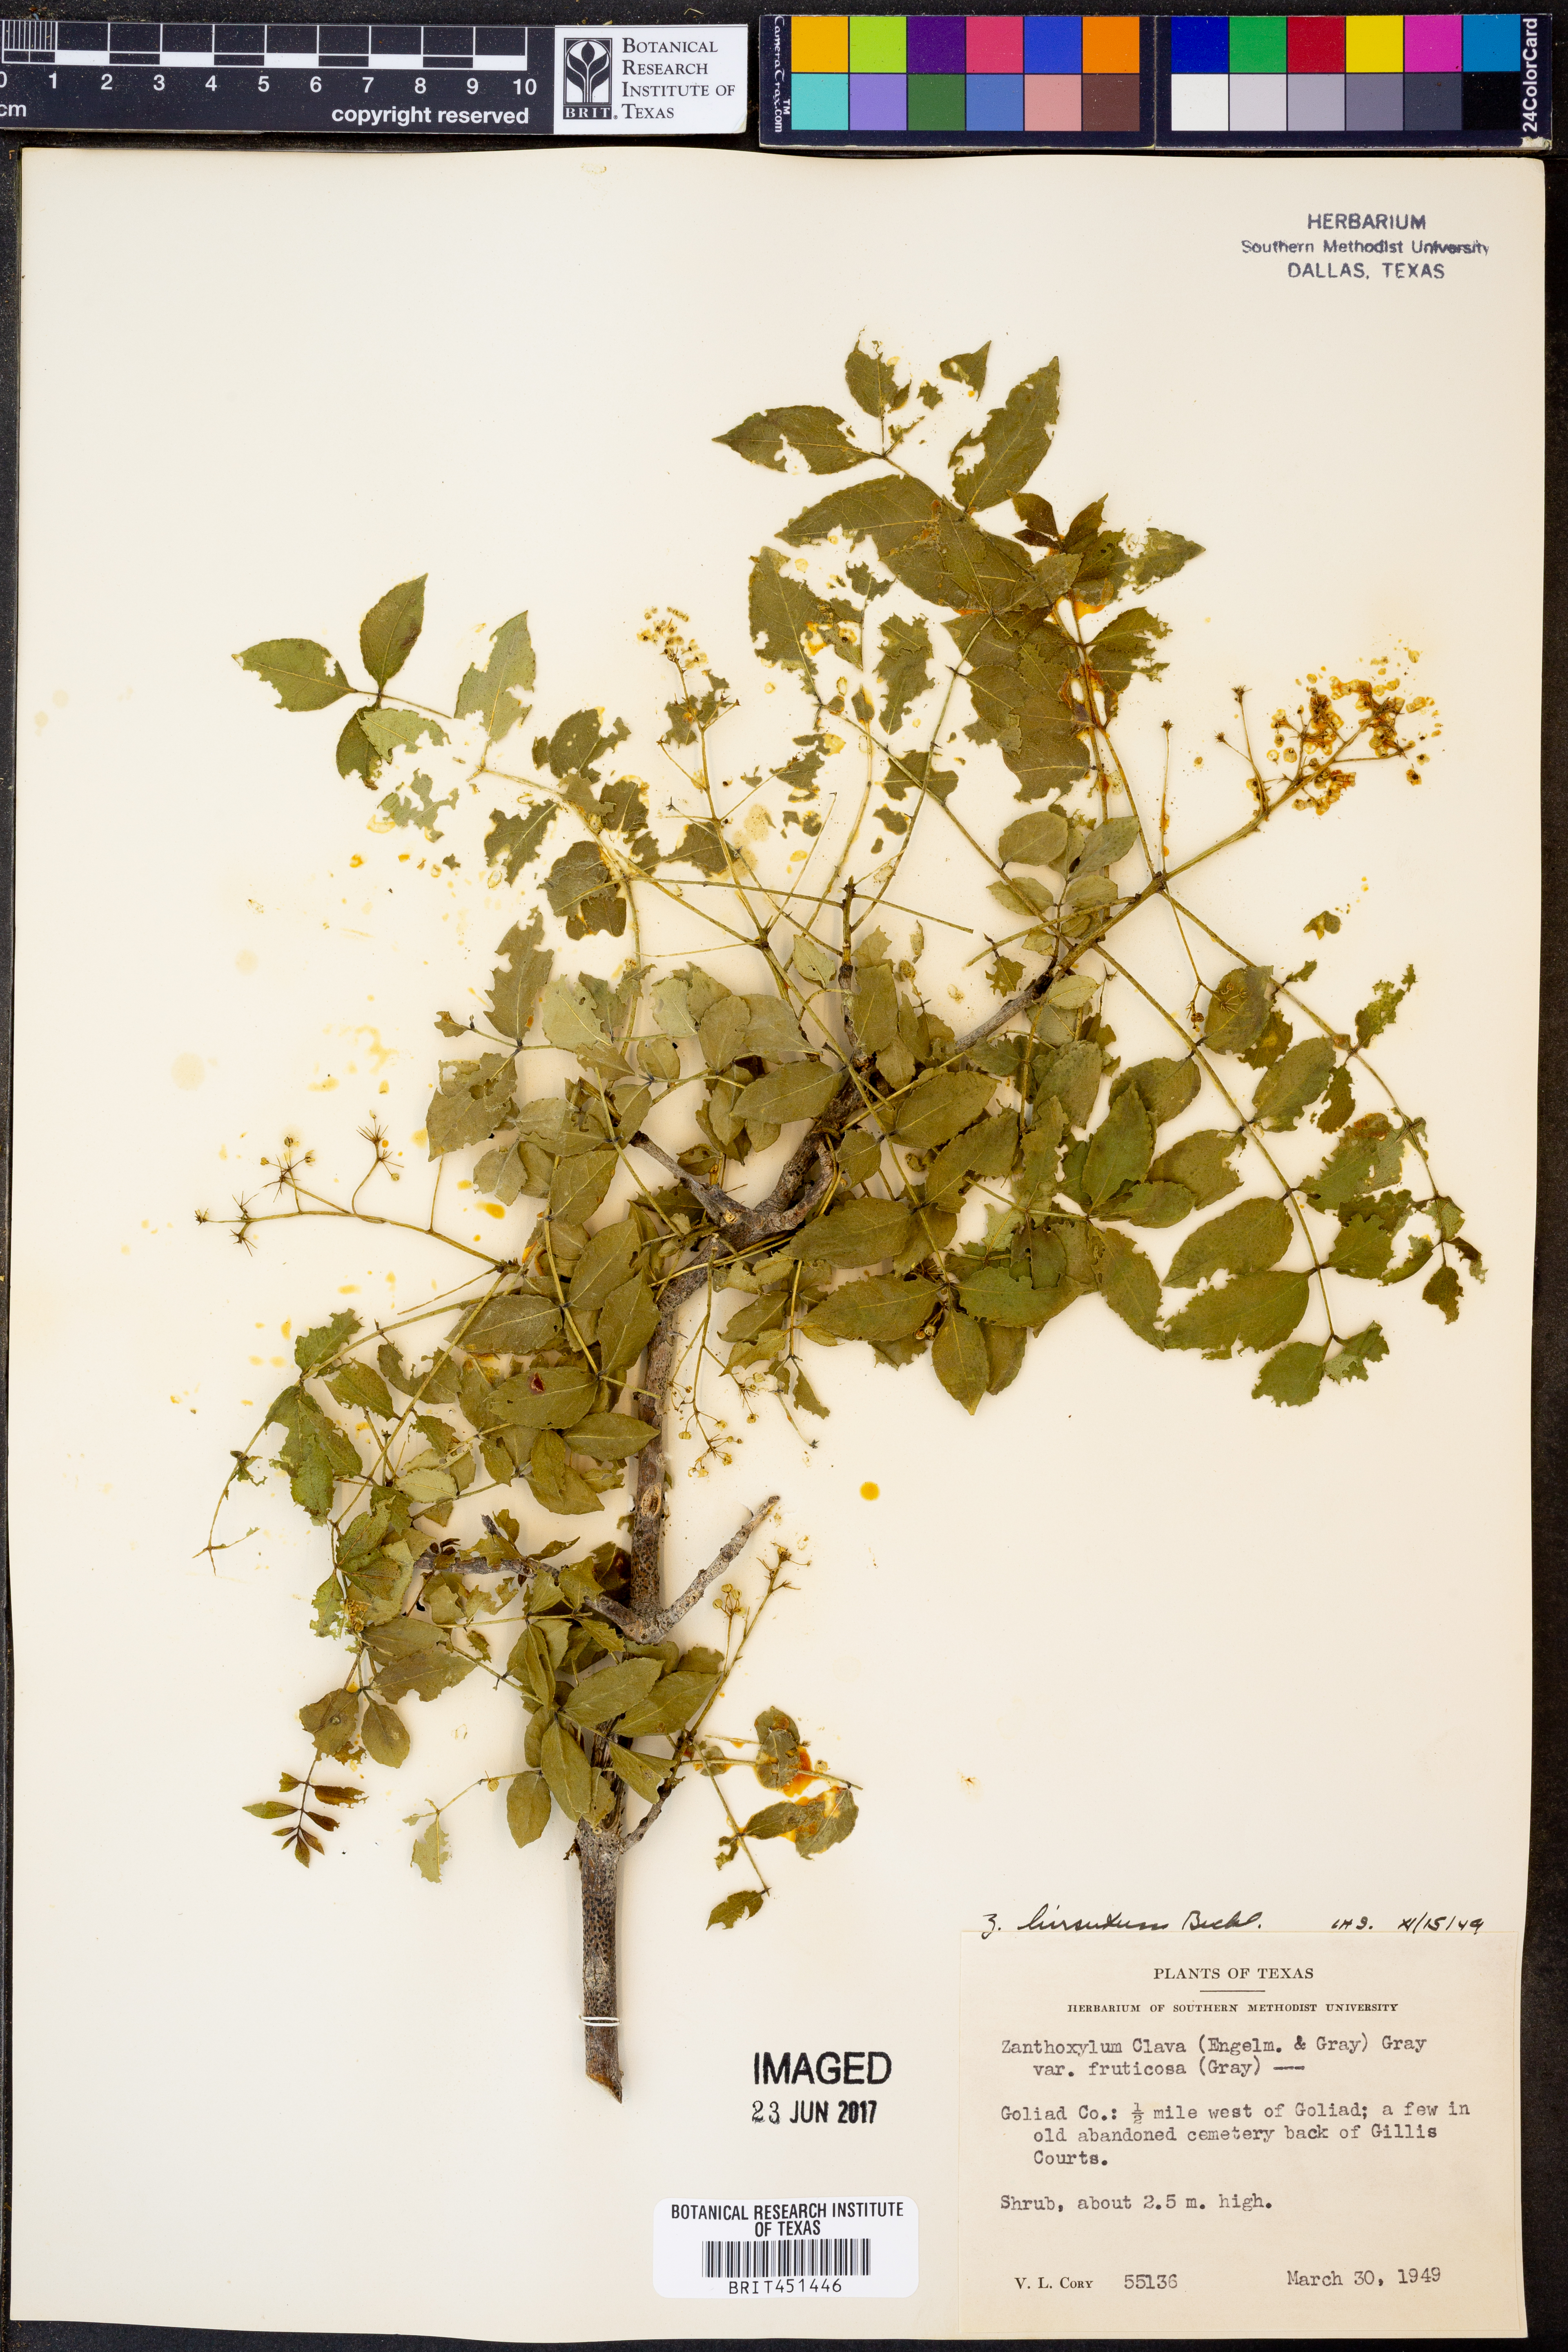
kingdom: Plantae
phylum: Tracheophyta
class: Magnoliopsida
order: Sapindales
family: Rutaceae
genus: Zanthoxylum
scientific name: Zanthoxylum clava-herculis
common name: Hercules'-club
